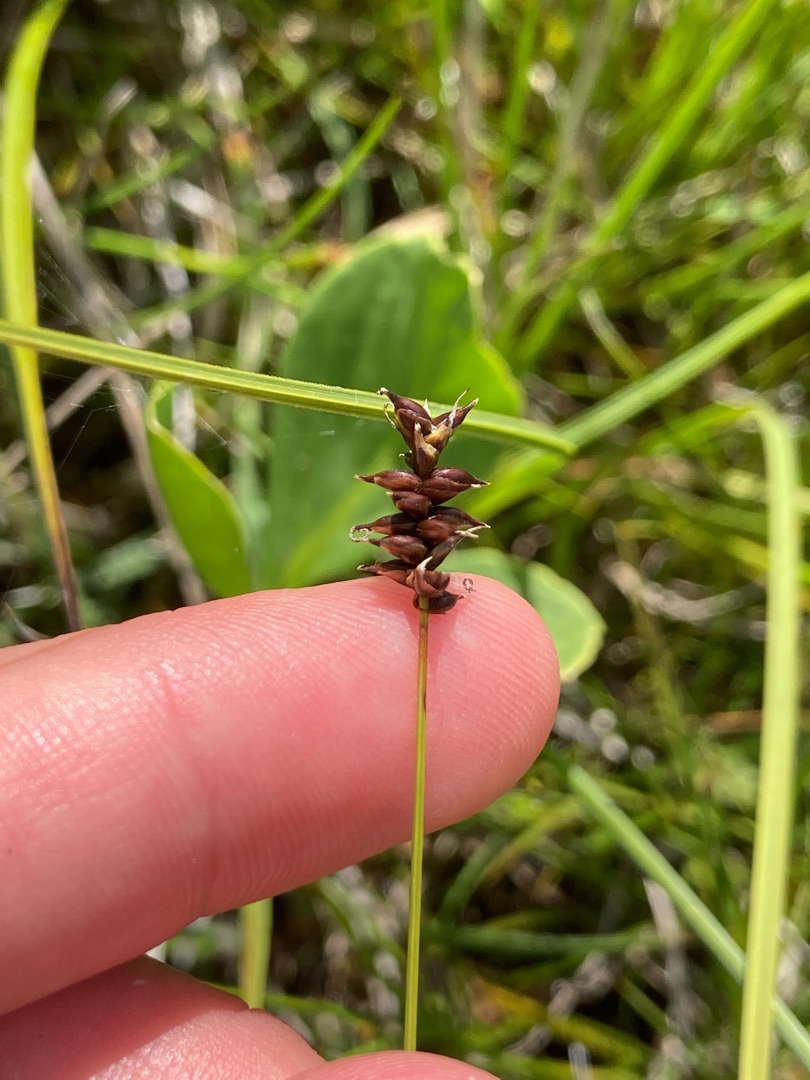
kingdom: Plantae
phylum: Tracheophyta
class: Liliopsida
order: Poales
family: Cyperaceae
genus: Carex
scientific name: Carex dioica
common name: Tvebo star
